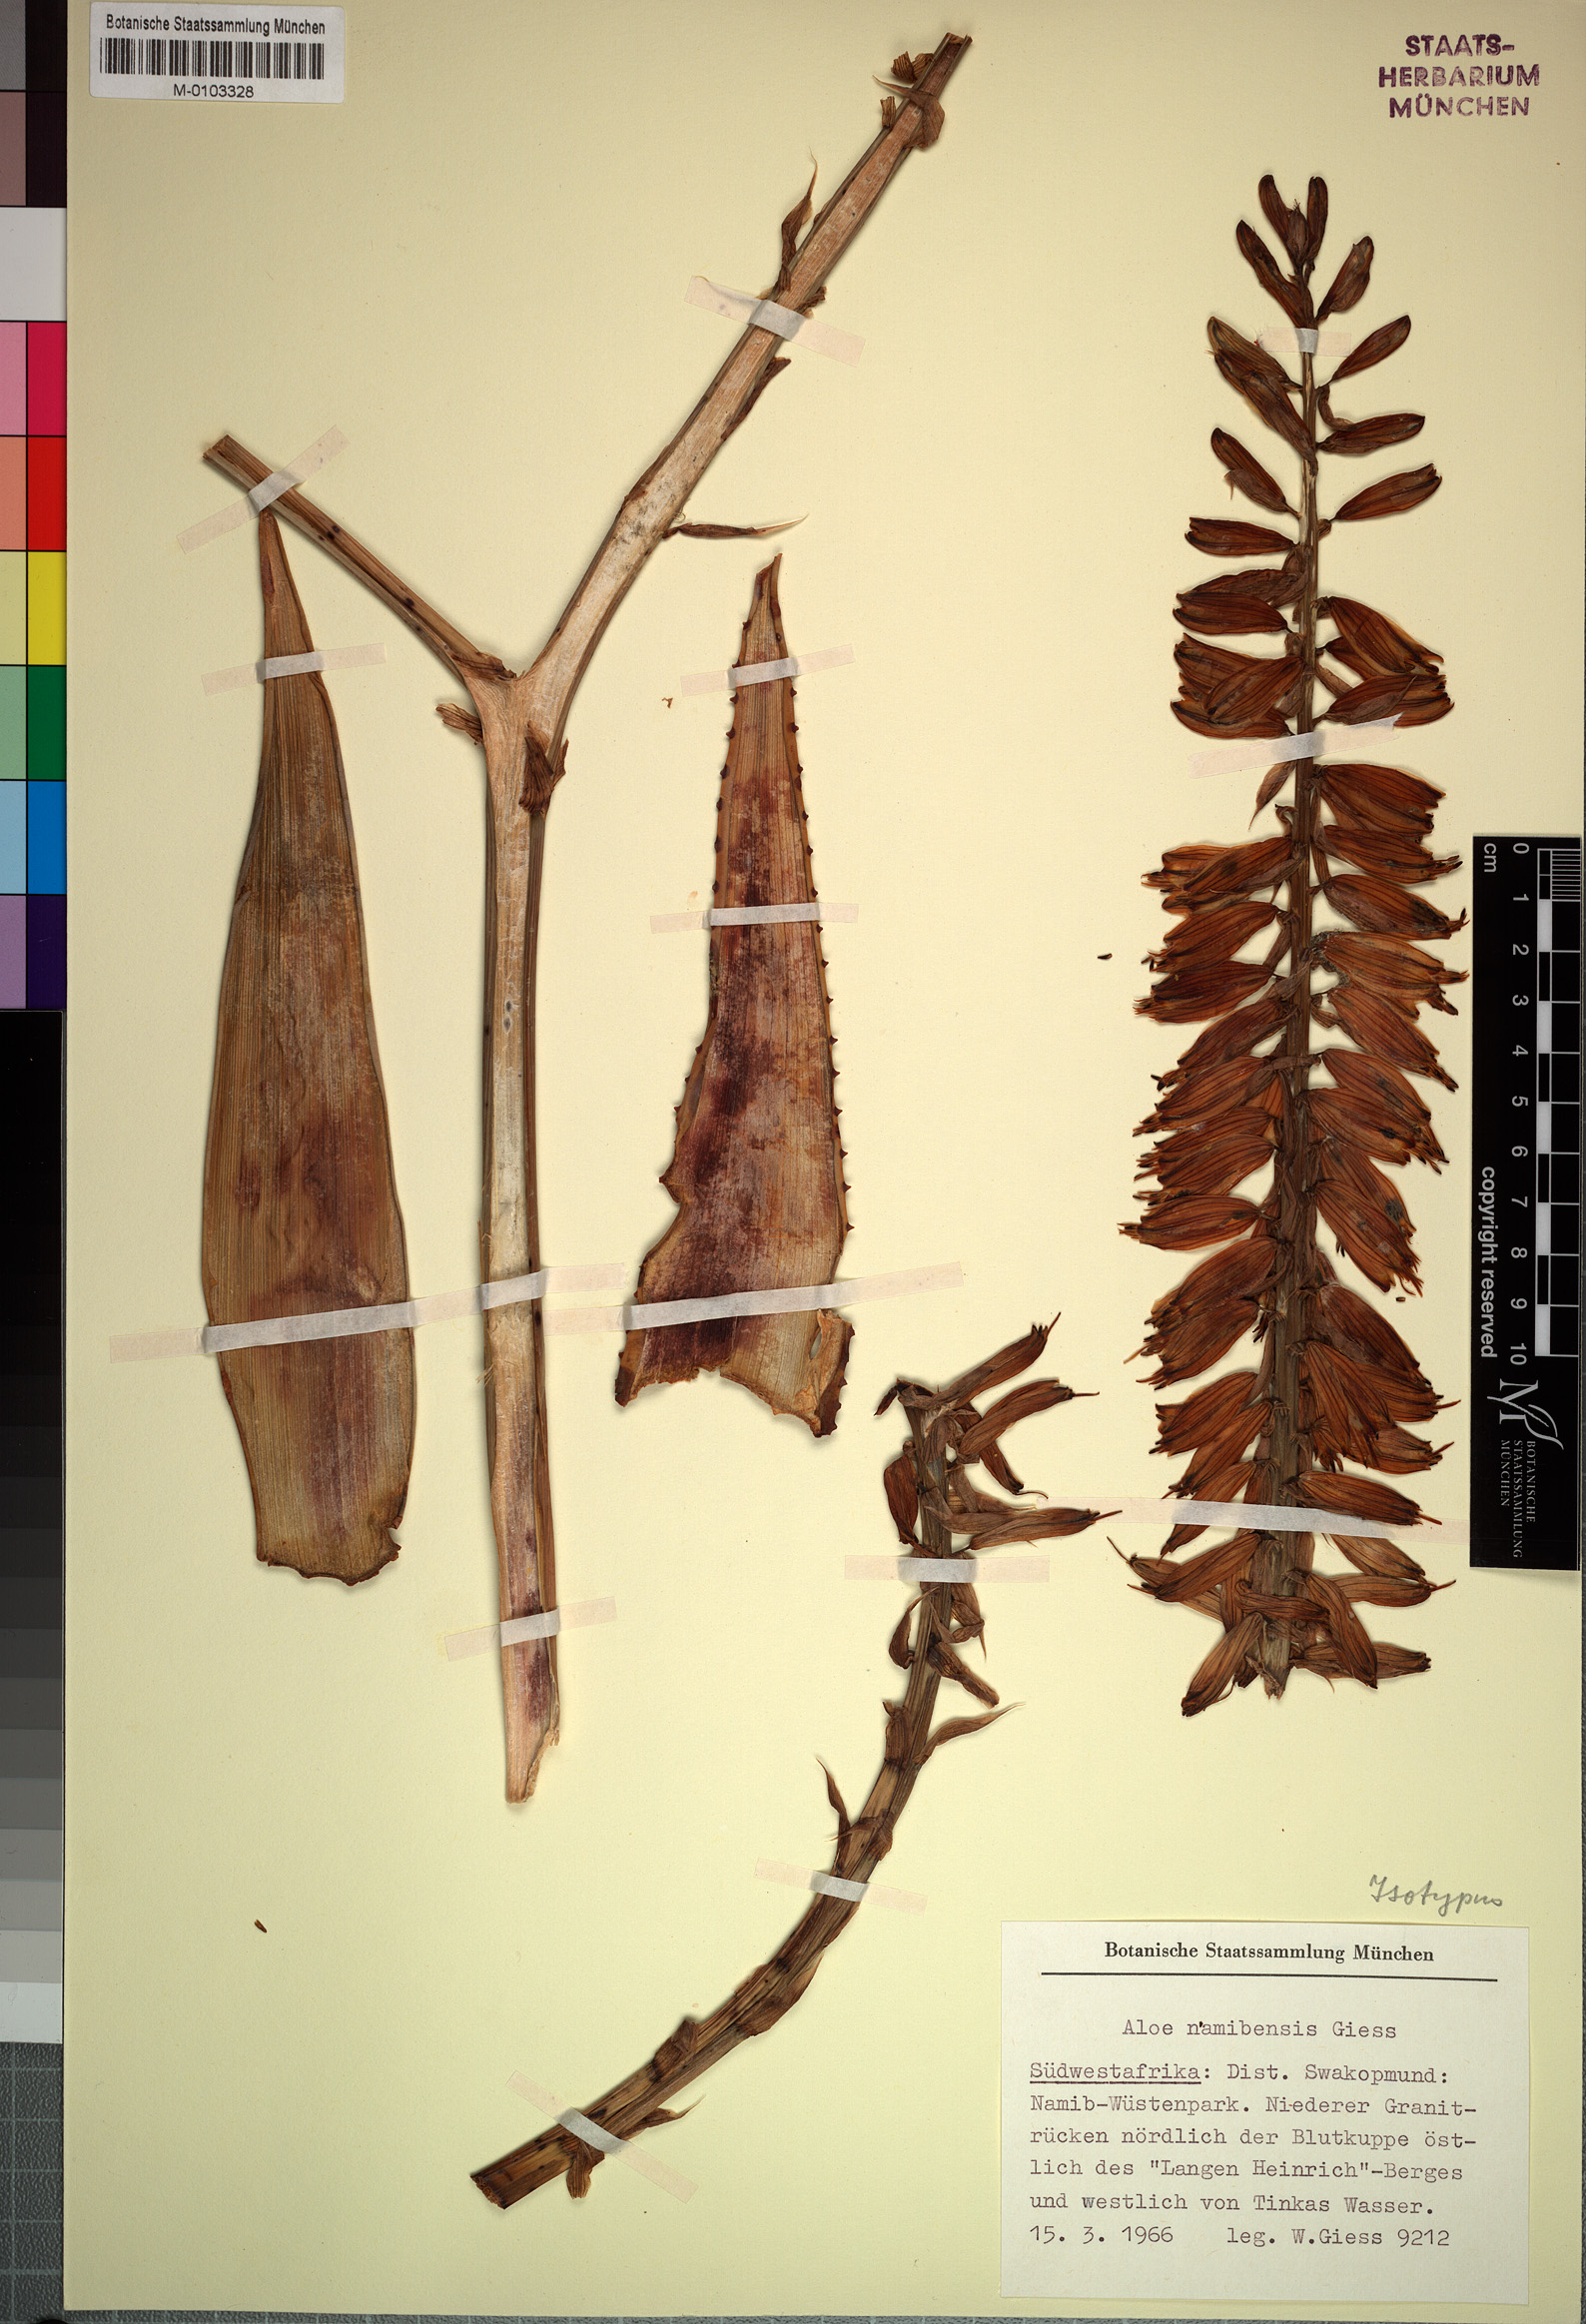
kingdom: Plantae
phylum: Tracheophyta
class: Liliopsida
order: Asparagales
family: Asphodelaceae
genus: Aloe
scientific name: Aloe namibensis
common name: Namib aloe
